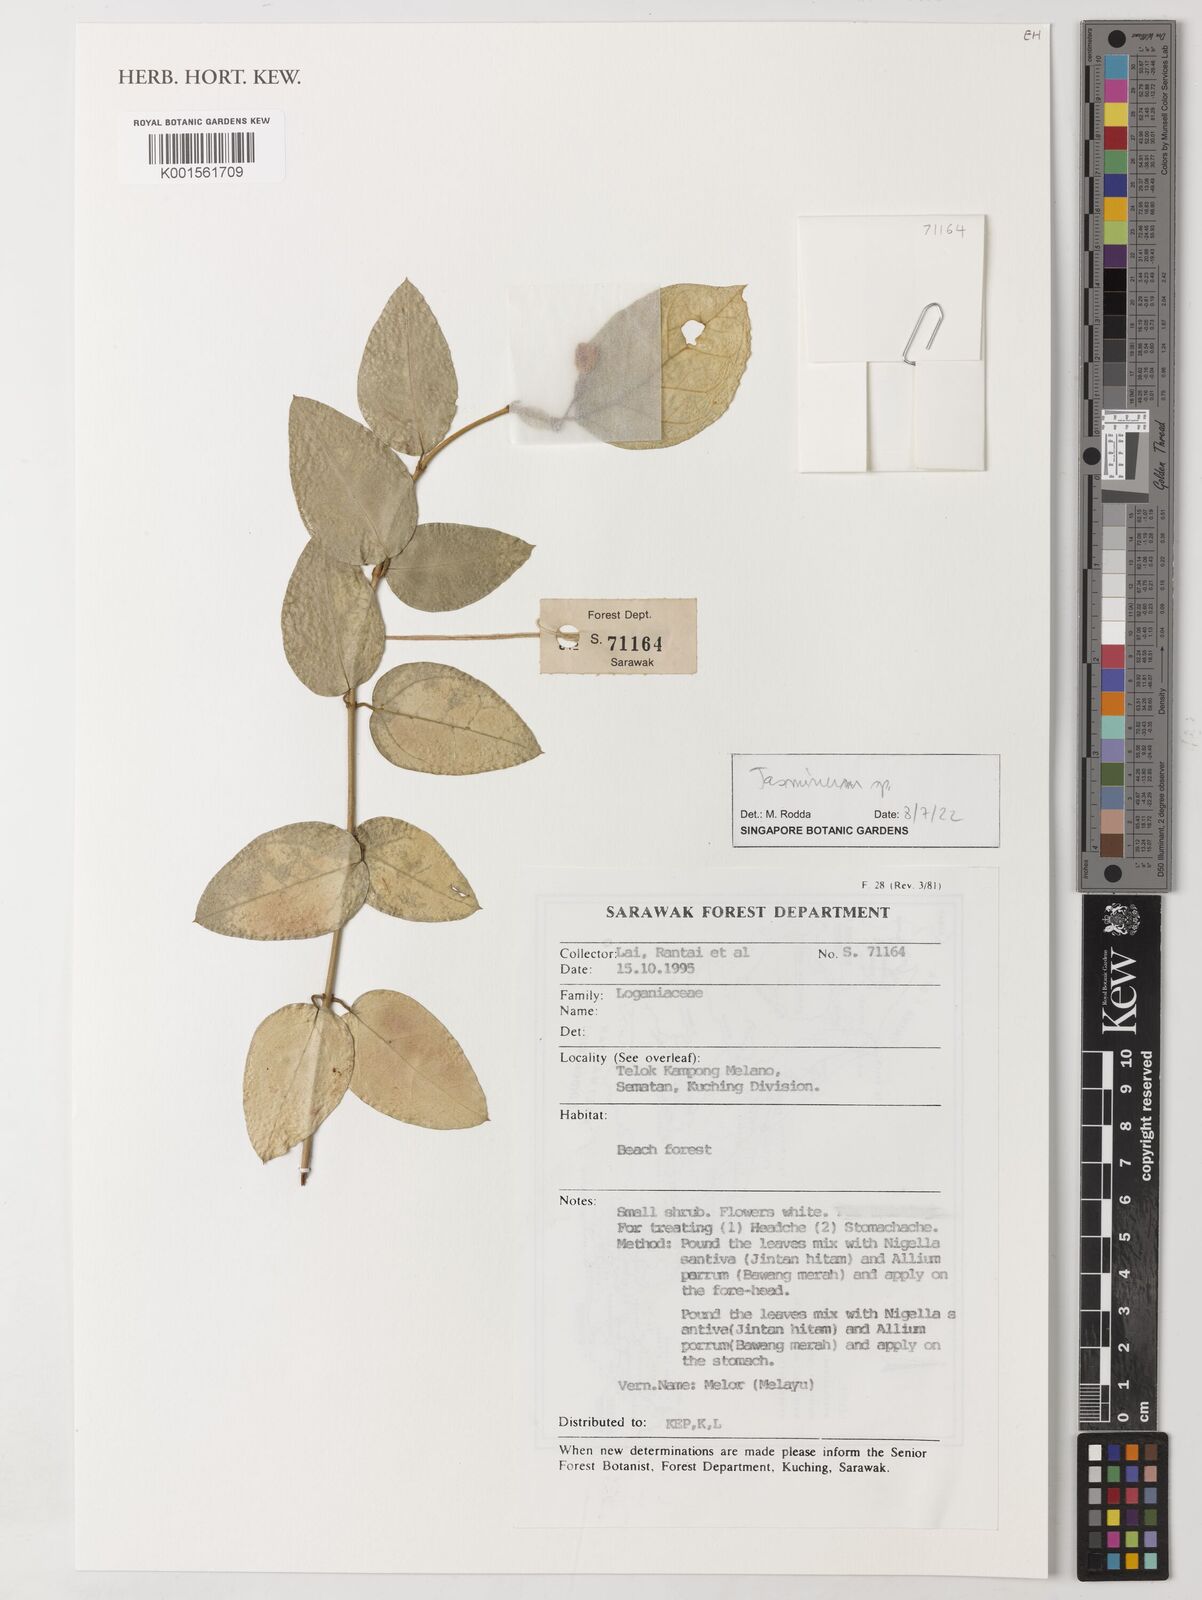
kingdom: Plantae
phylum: Tracheophyta
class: Magnoliopsida
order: Lamiales
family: Oleaceae
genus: Jasminum
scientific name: Jasminum
